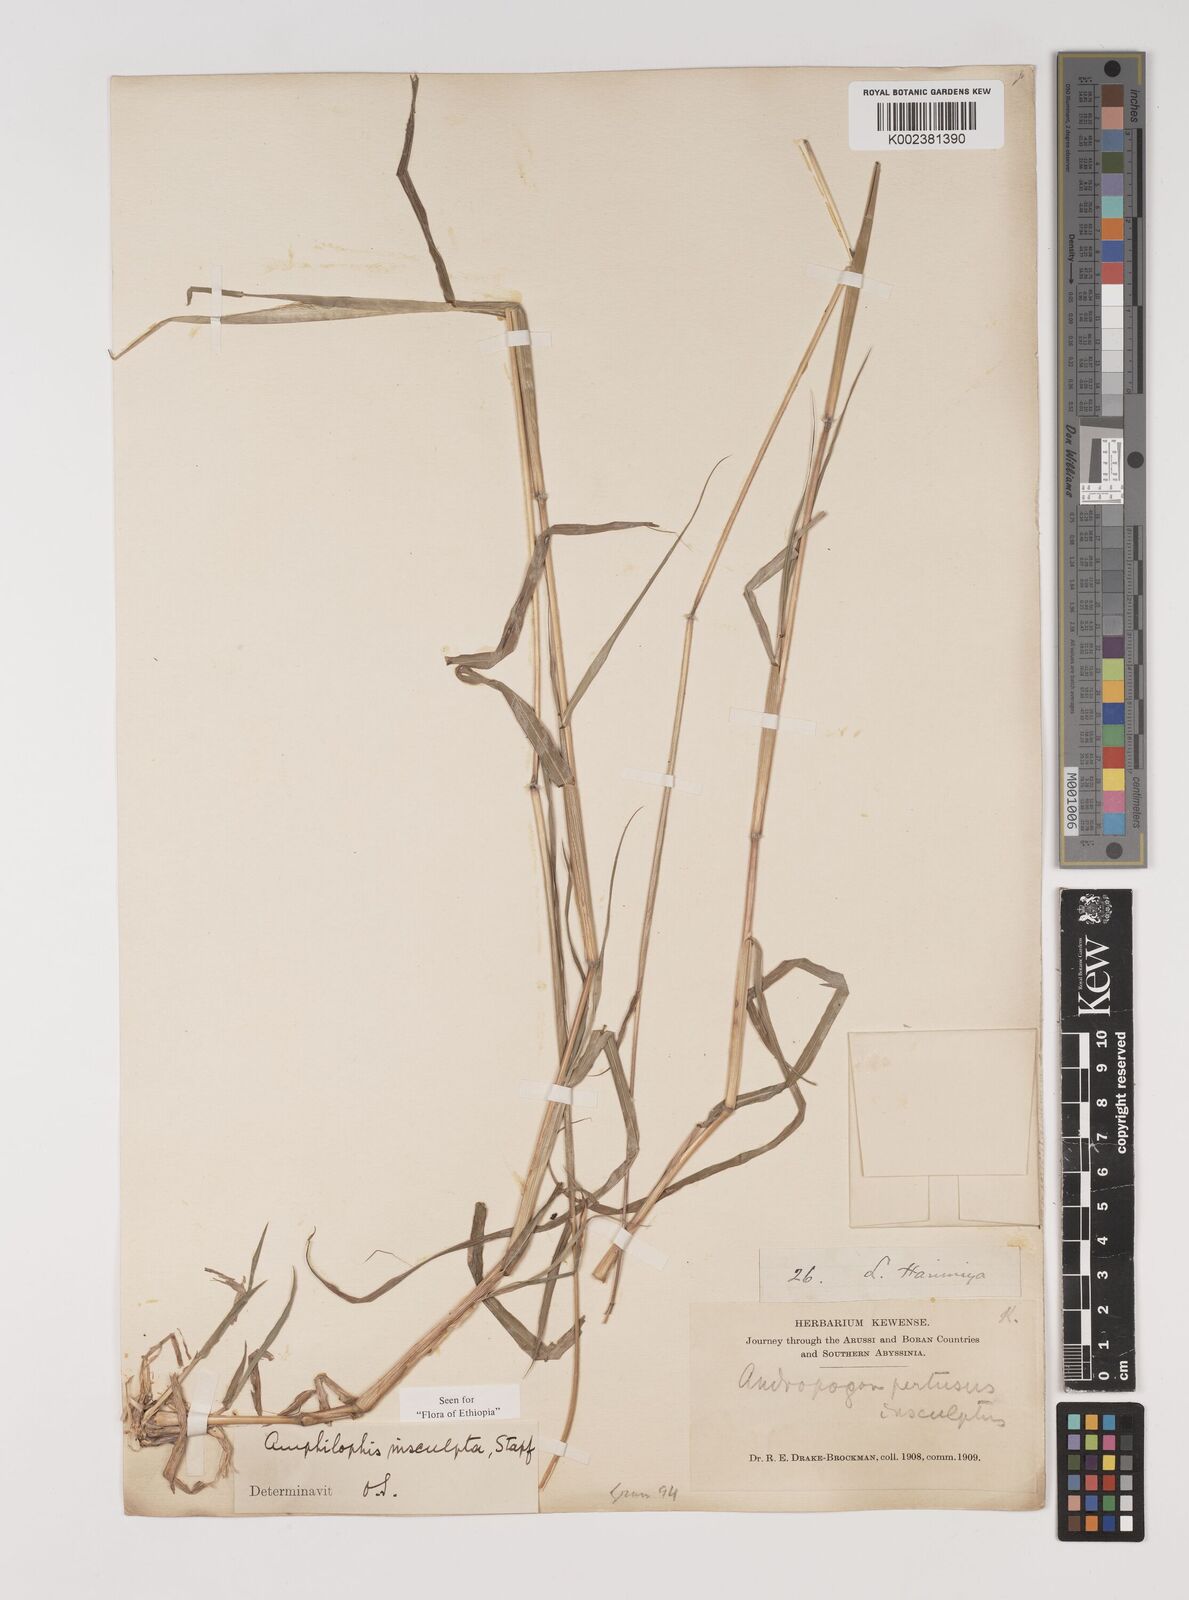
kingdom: Plantae
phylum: Tracheophyta
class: Liliopsida
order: Poales
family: Poaceae
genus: Bothriochloa
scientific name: Bothriochloa insculpta
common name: Creeping-bluegrass
